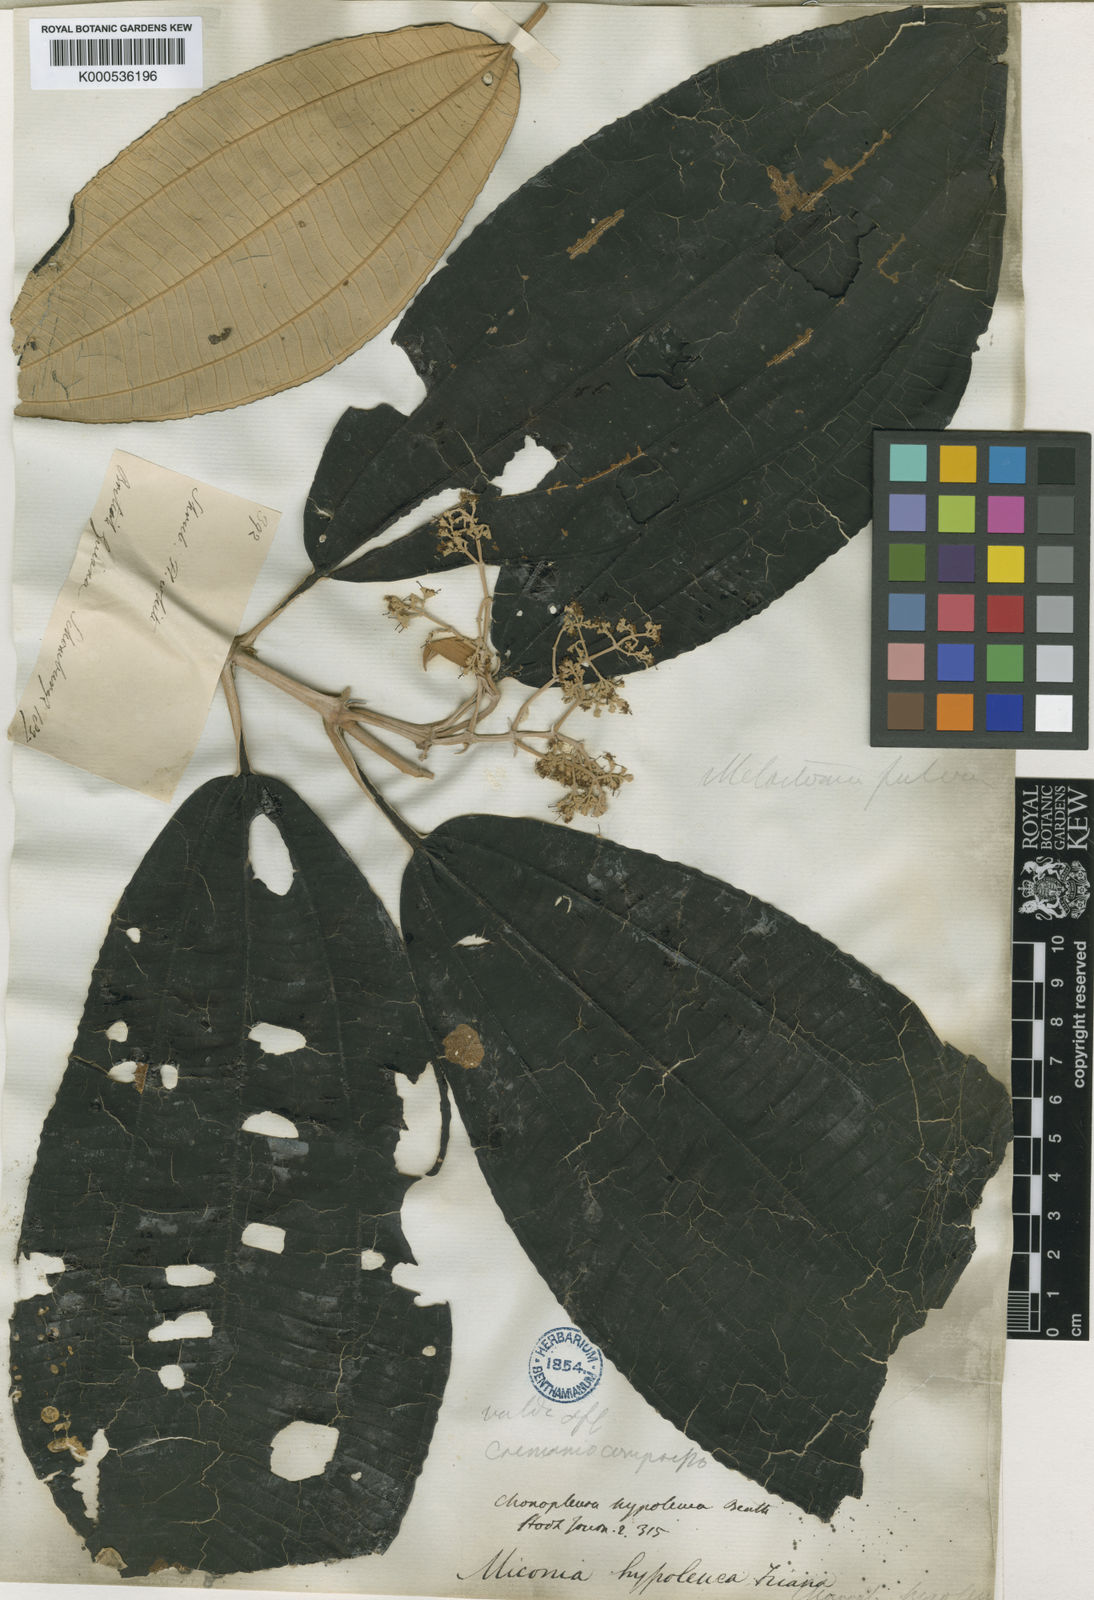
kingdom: Plantae
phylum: Tracheophyta
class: Magnoliopsida
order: Myrtales
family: Melastomataceae
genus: Miconia
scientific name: Miconia hypoleuca
